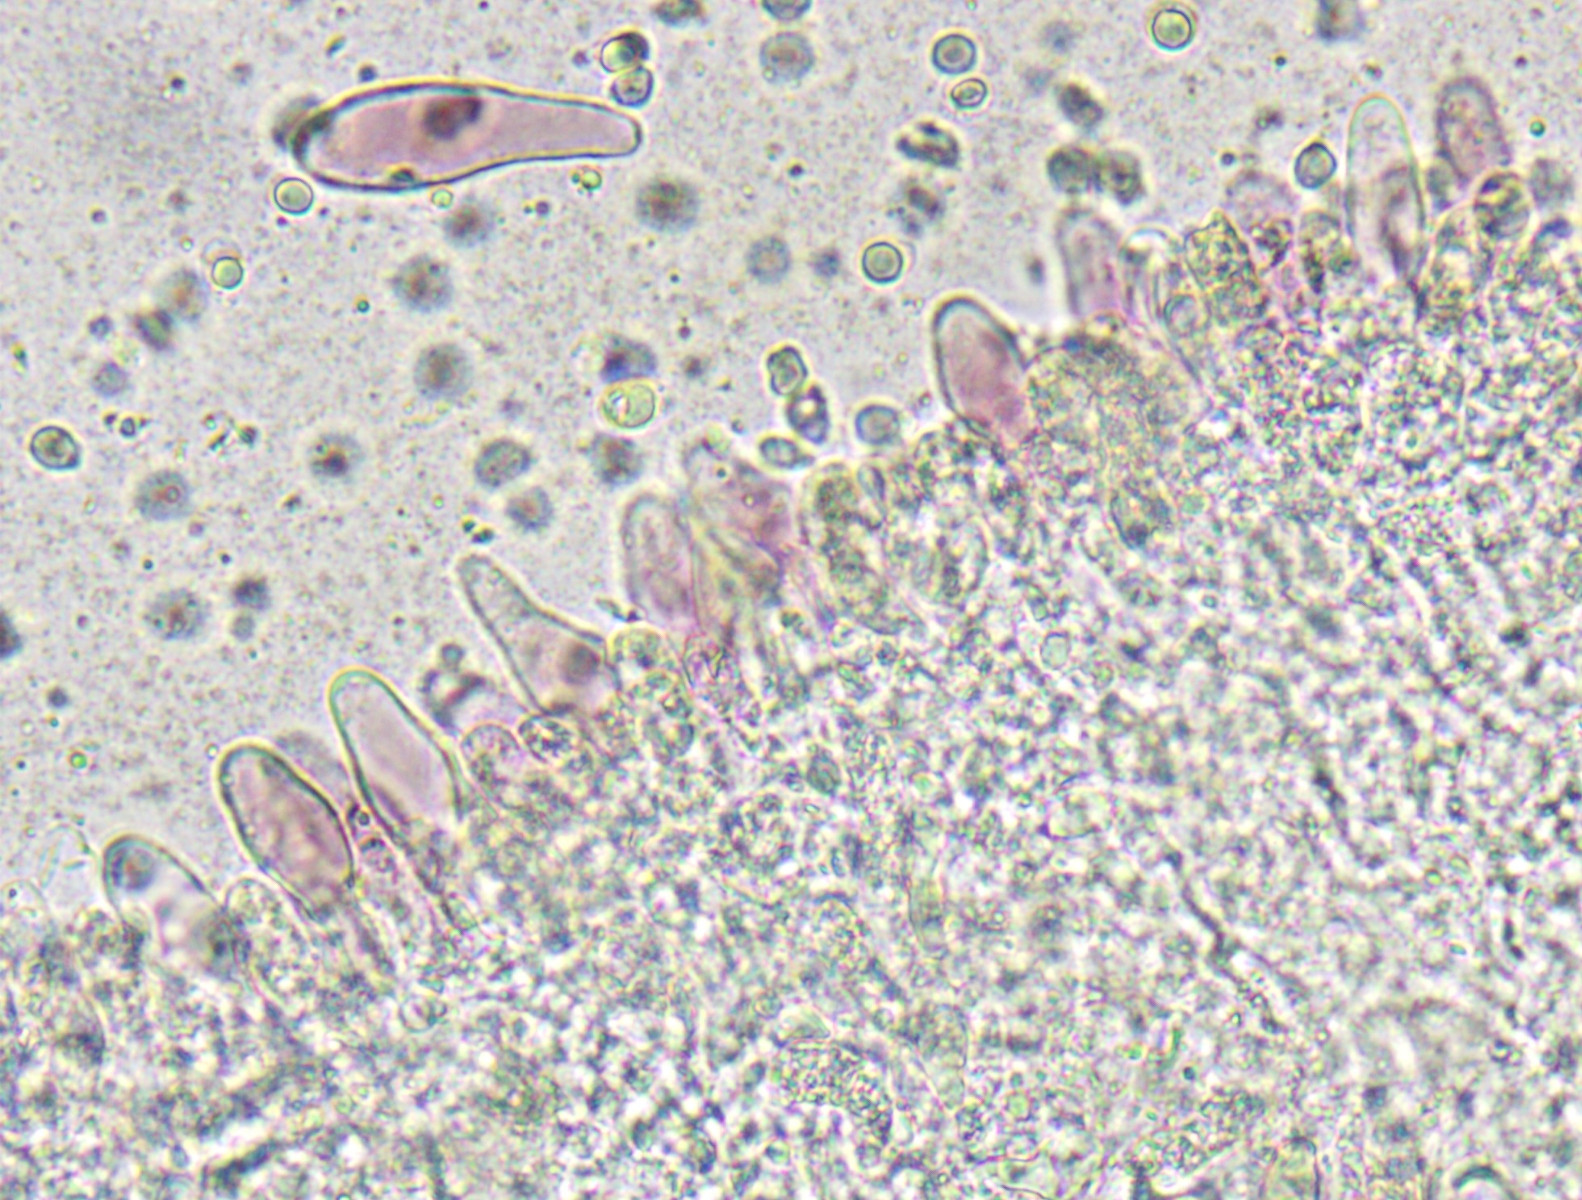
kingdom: Fungi
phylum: Basidiomycota
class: Agaricomycetes
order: Agaricales
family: Mycenaceae
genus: Mycena
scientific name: Mycena purpureofusca
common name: purpur-huesvamp
